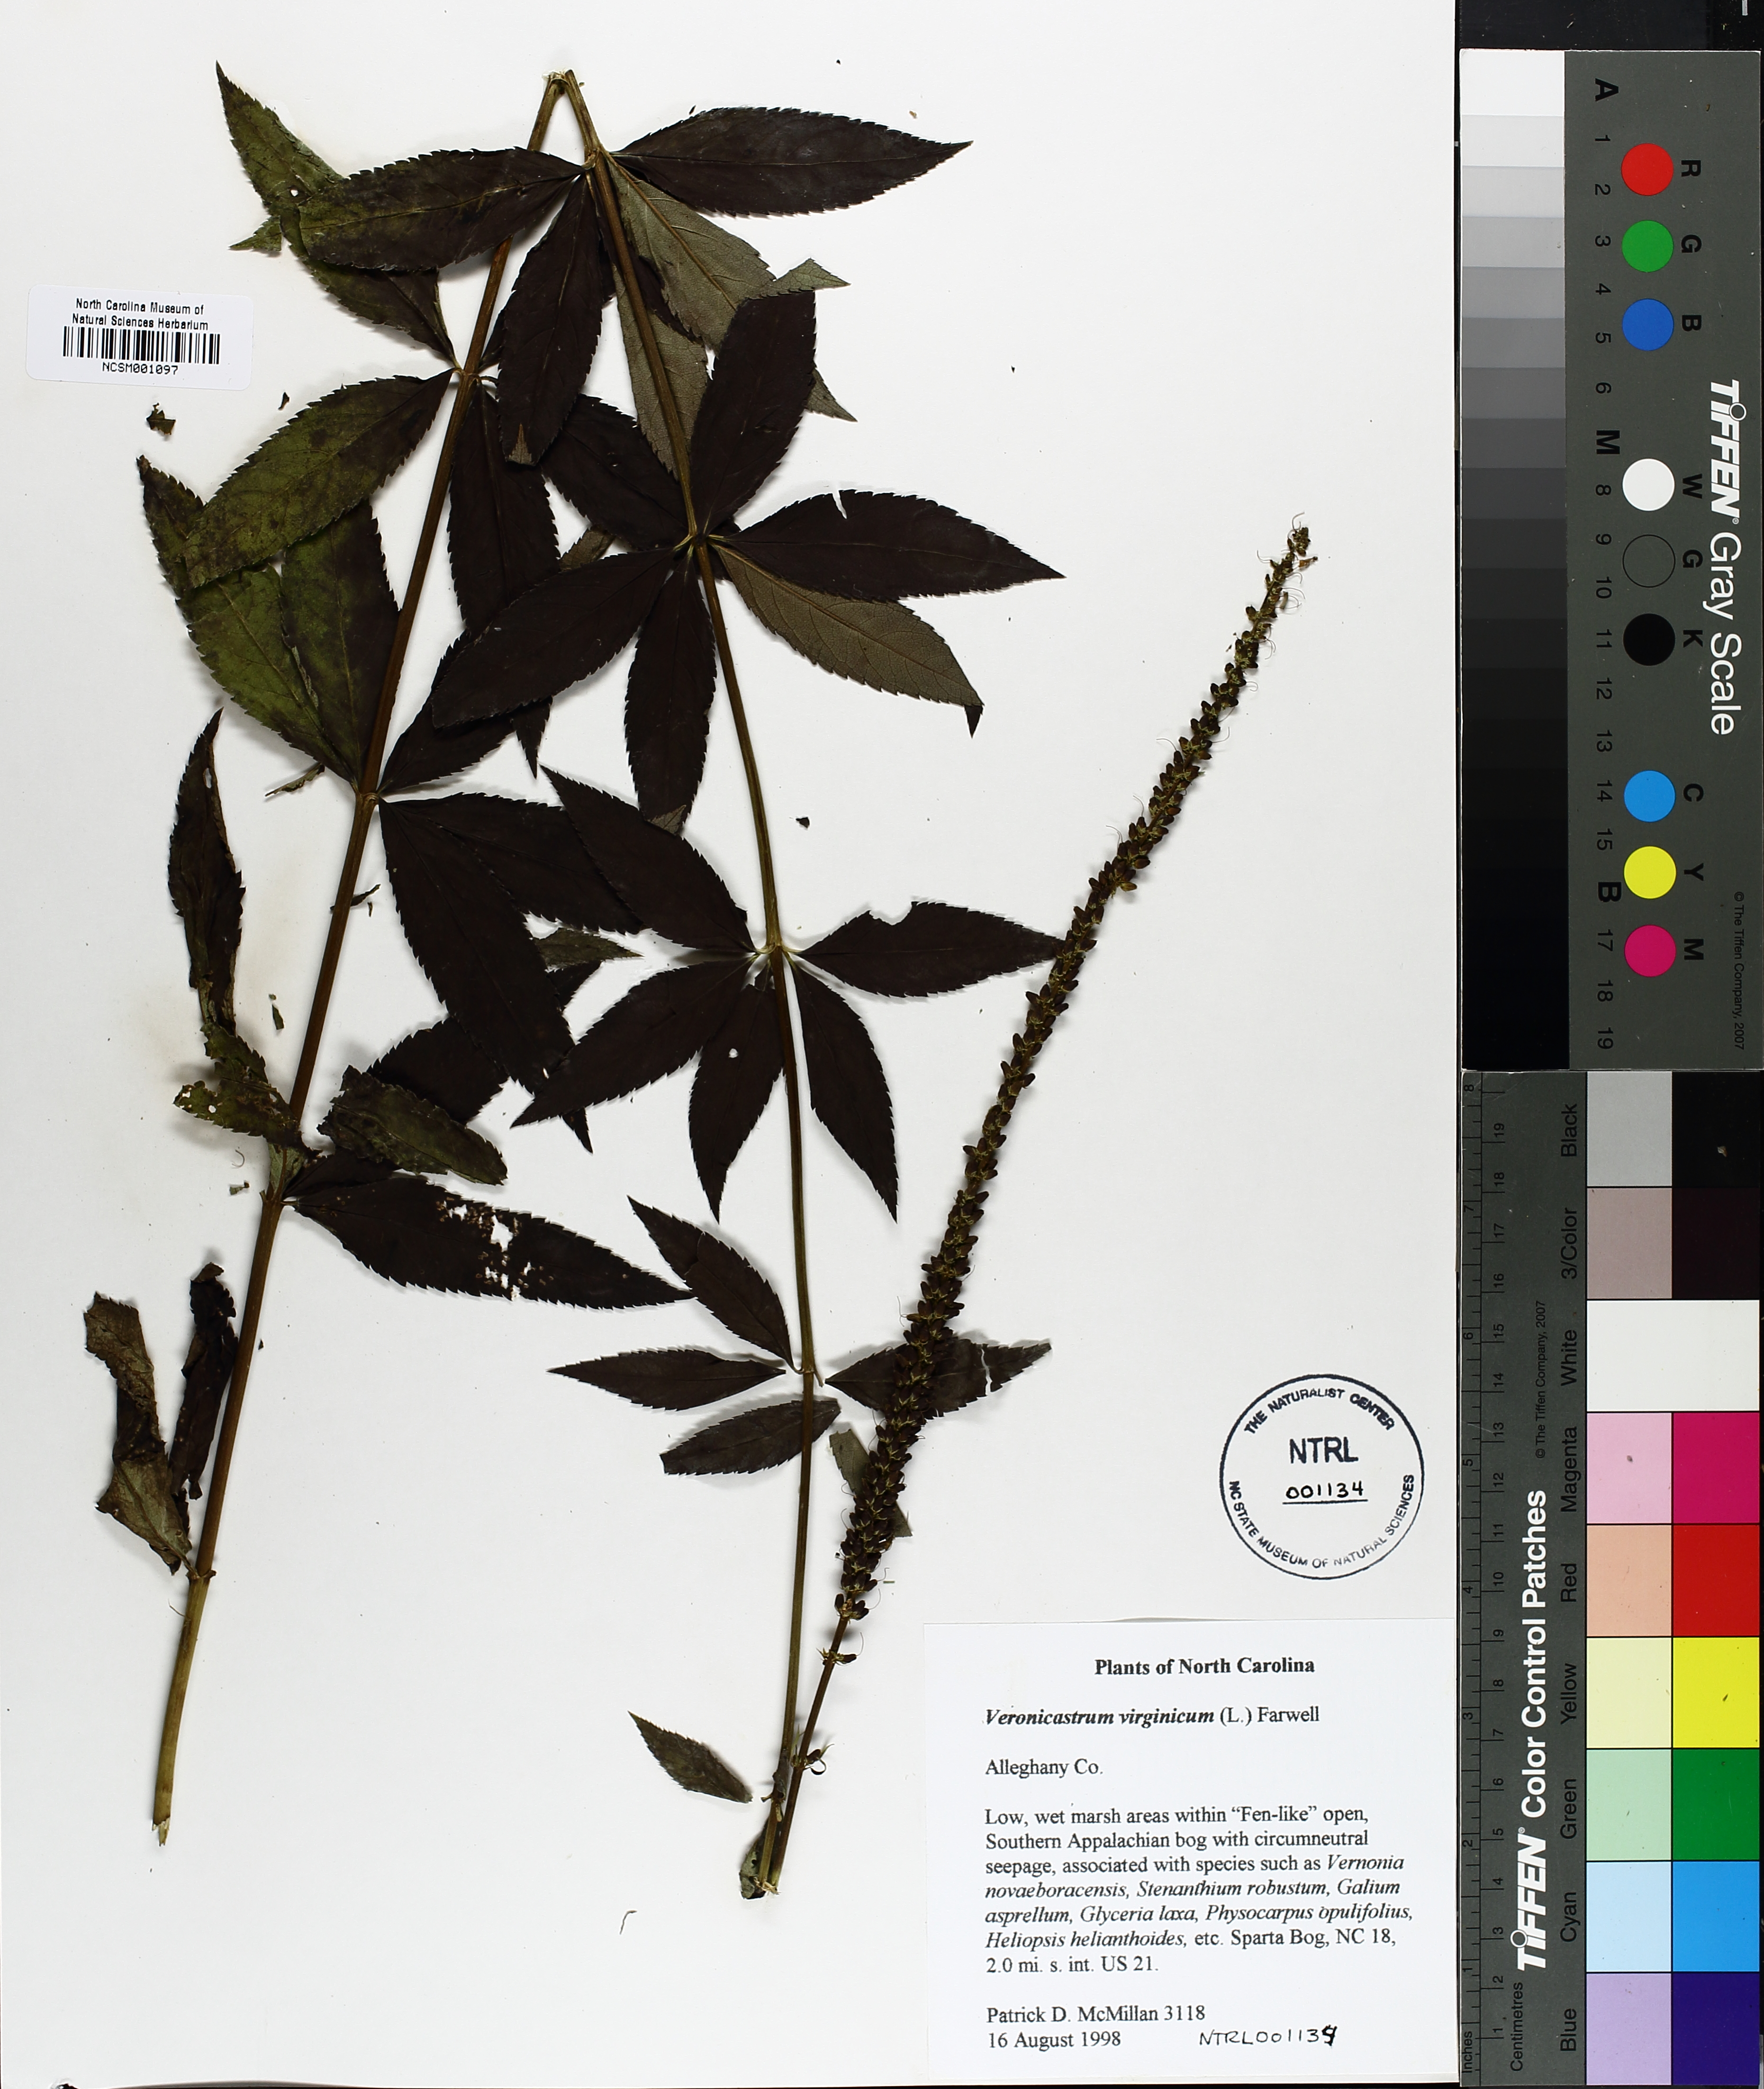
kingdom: Plantae
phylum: Tracheophyta
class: Magnoliopsida
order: Lamiales
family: Plantaginaceae
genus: Veronicastrum
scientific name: Veronicastrum virginicum
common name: Blackroot
